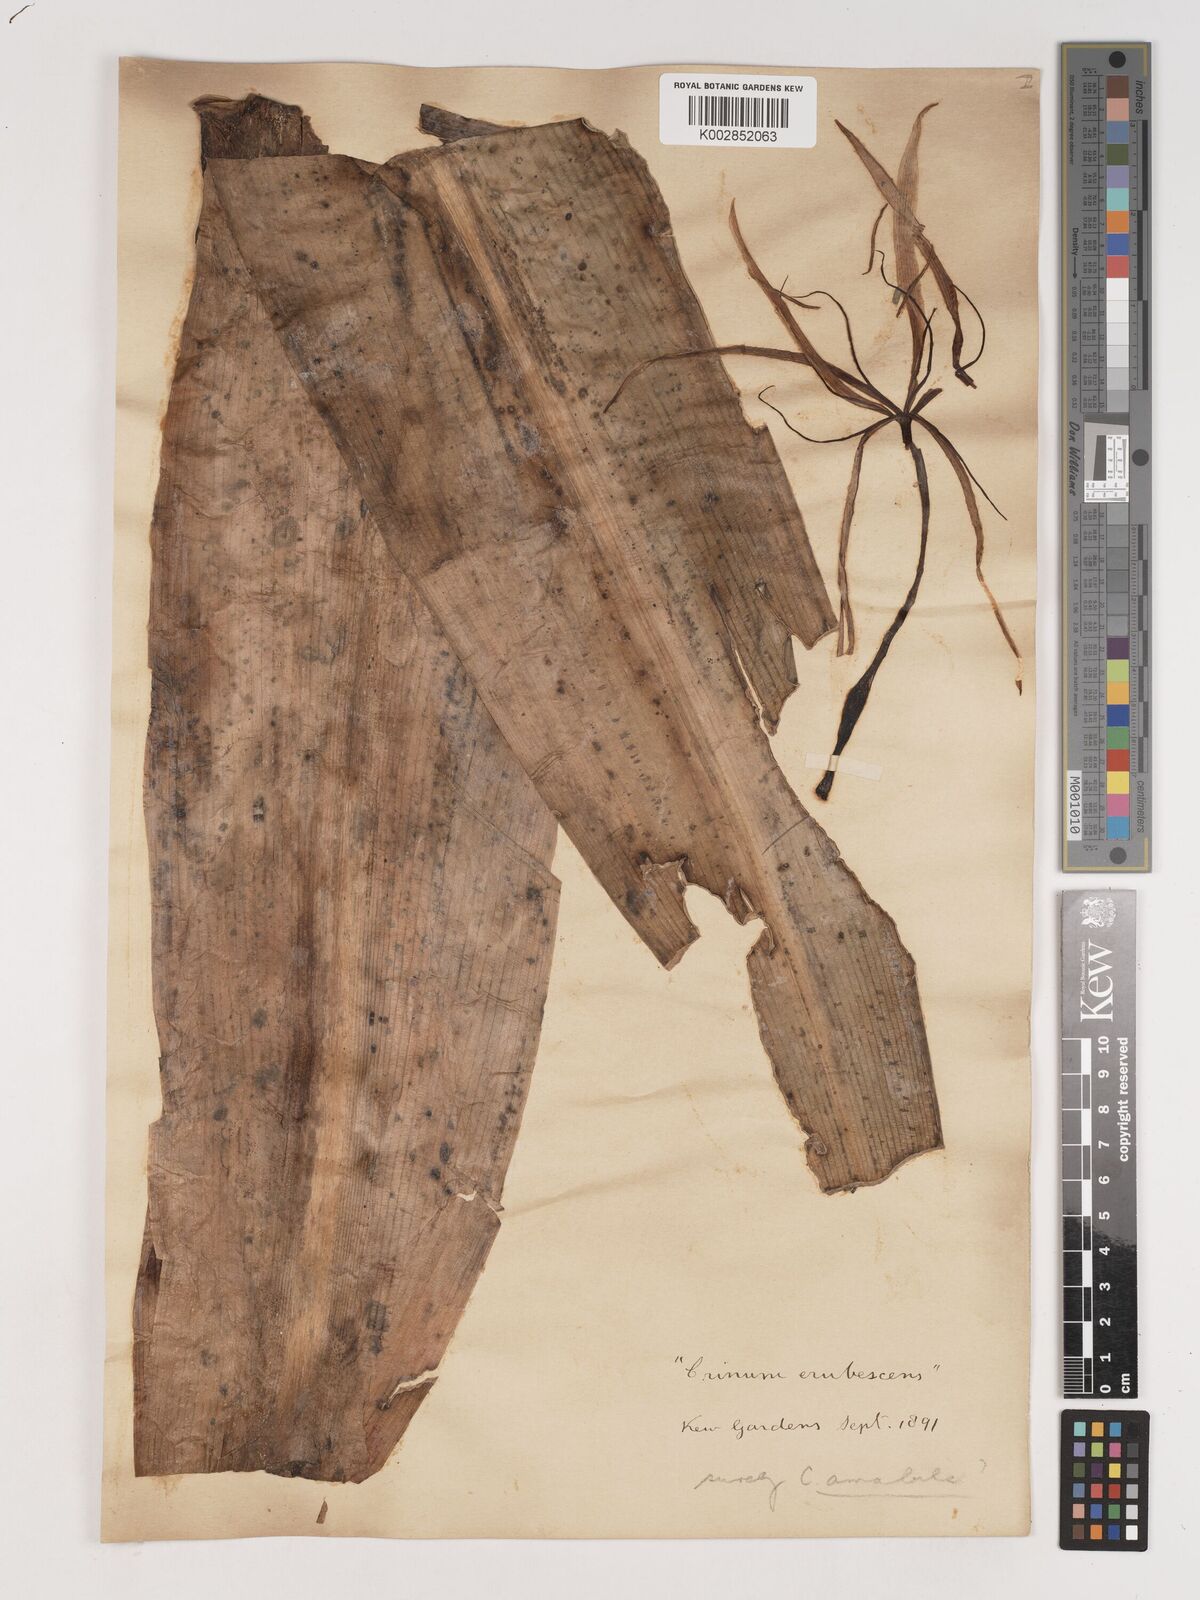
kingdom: Plantae
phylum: Tracheophyta
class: Liliopsida
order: Asparagales
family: Amaryllidaceae
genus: Crinum
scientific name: Crinum amabile
